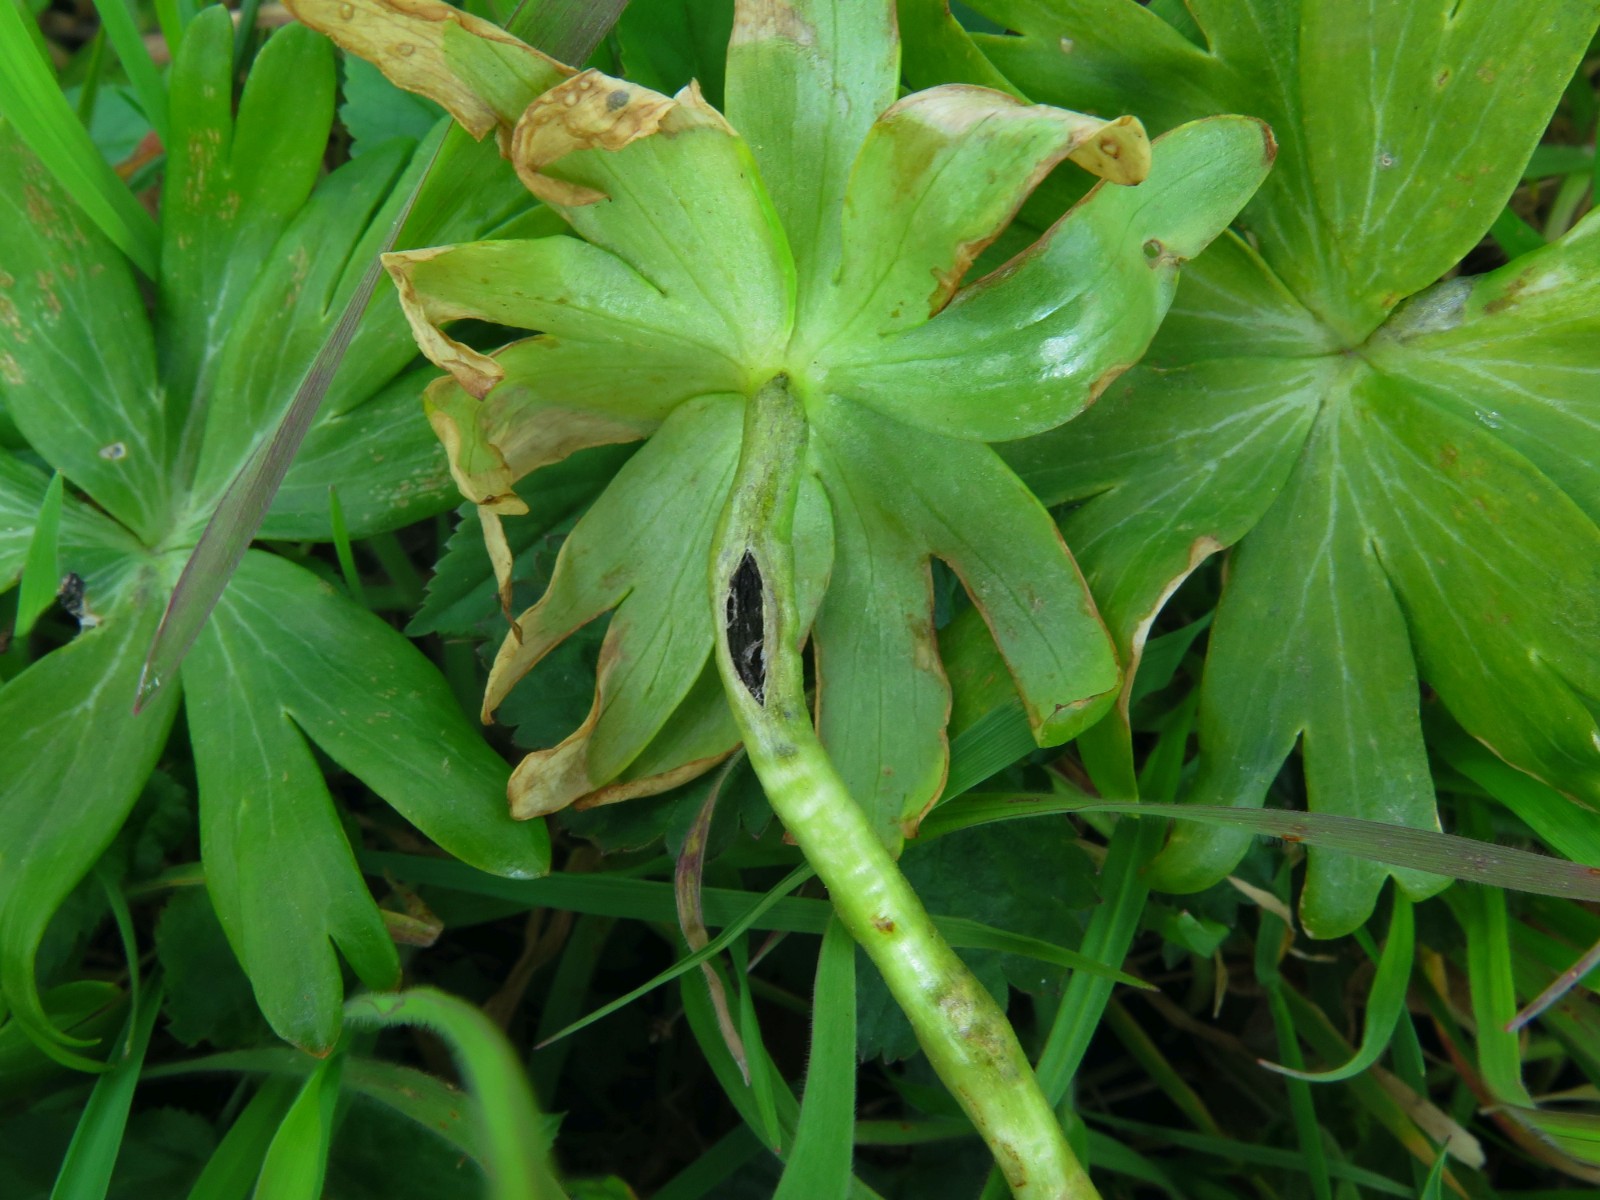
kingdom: Fungi
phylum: Basidiomycota
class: Ustilaginomycetes
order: Urocystidales
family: Urocystidaceae
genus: Urocystis
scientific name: Urocystis eranthidis
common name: erantis-brand
